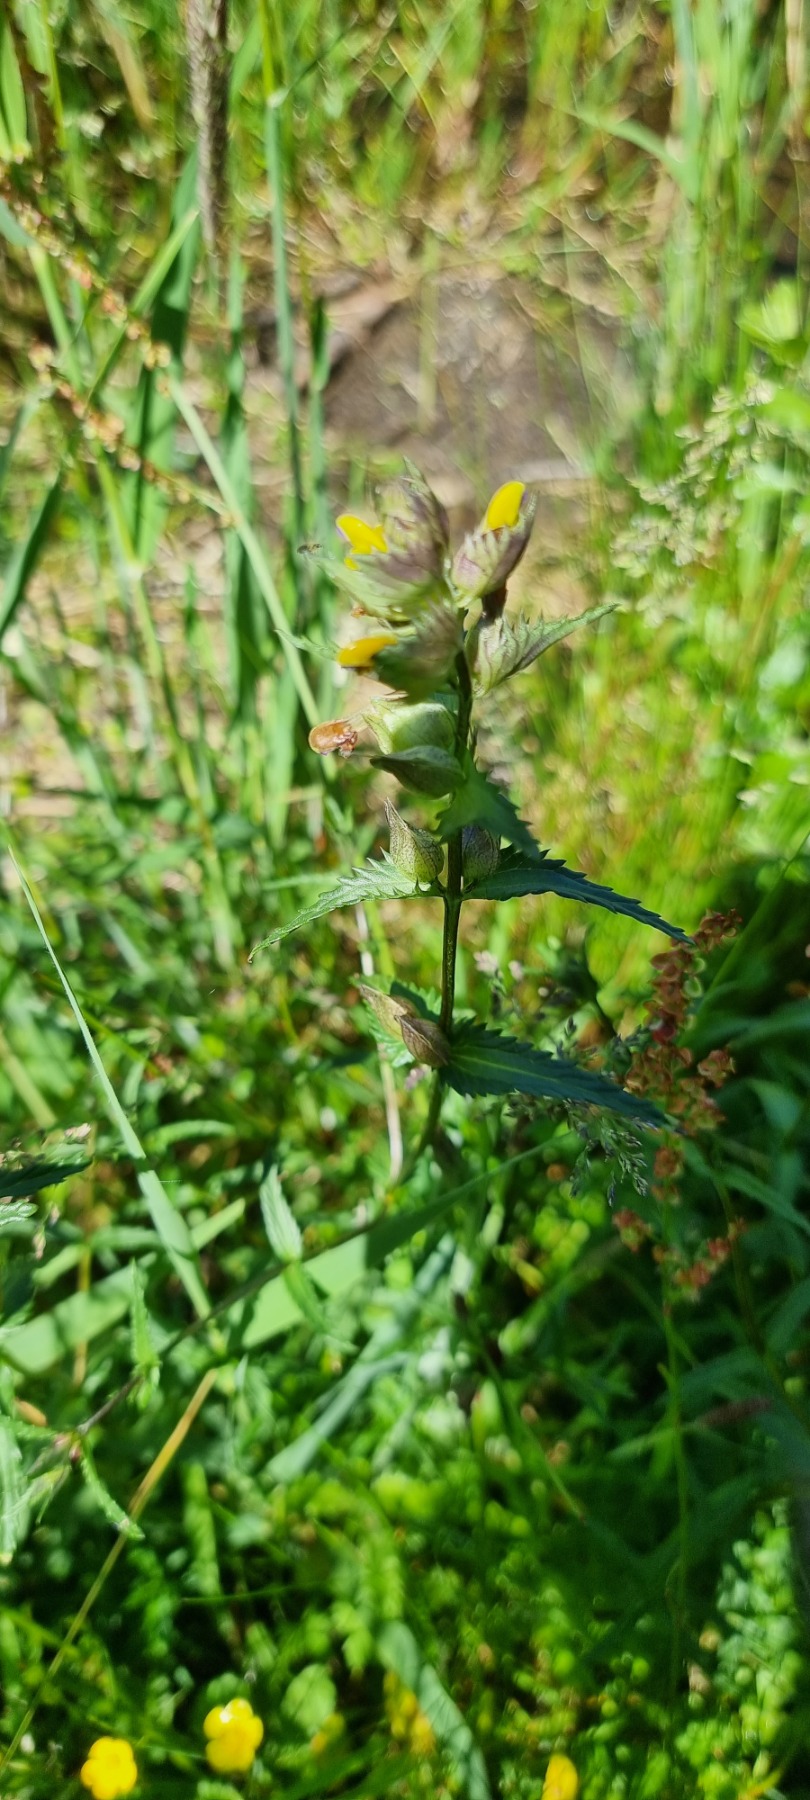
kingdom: Plantae
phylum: Tracheophyta
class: Magnoliopsida
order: Lamiales
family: Orobanchaceae
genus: Rhinanthus
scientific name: Rhinanthus minor
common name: Liden skjaller
